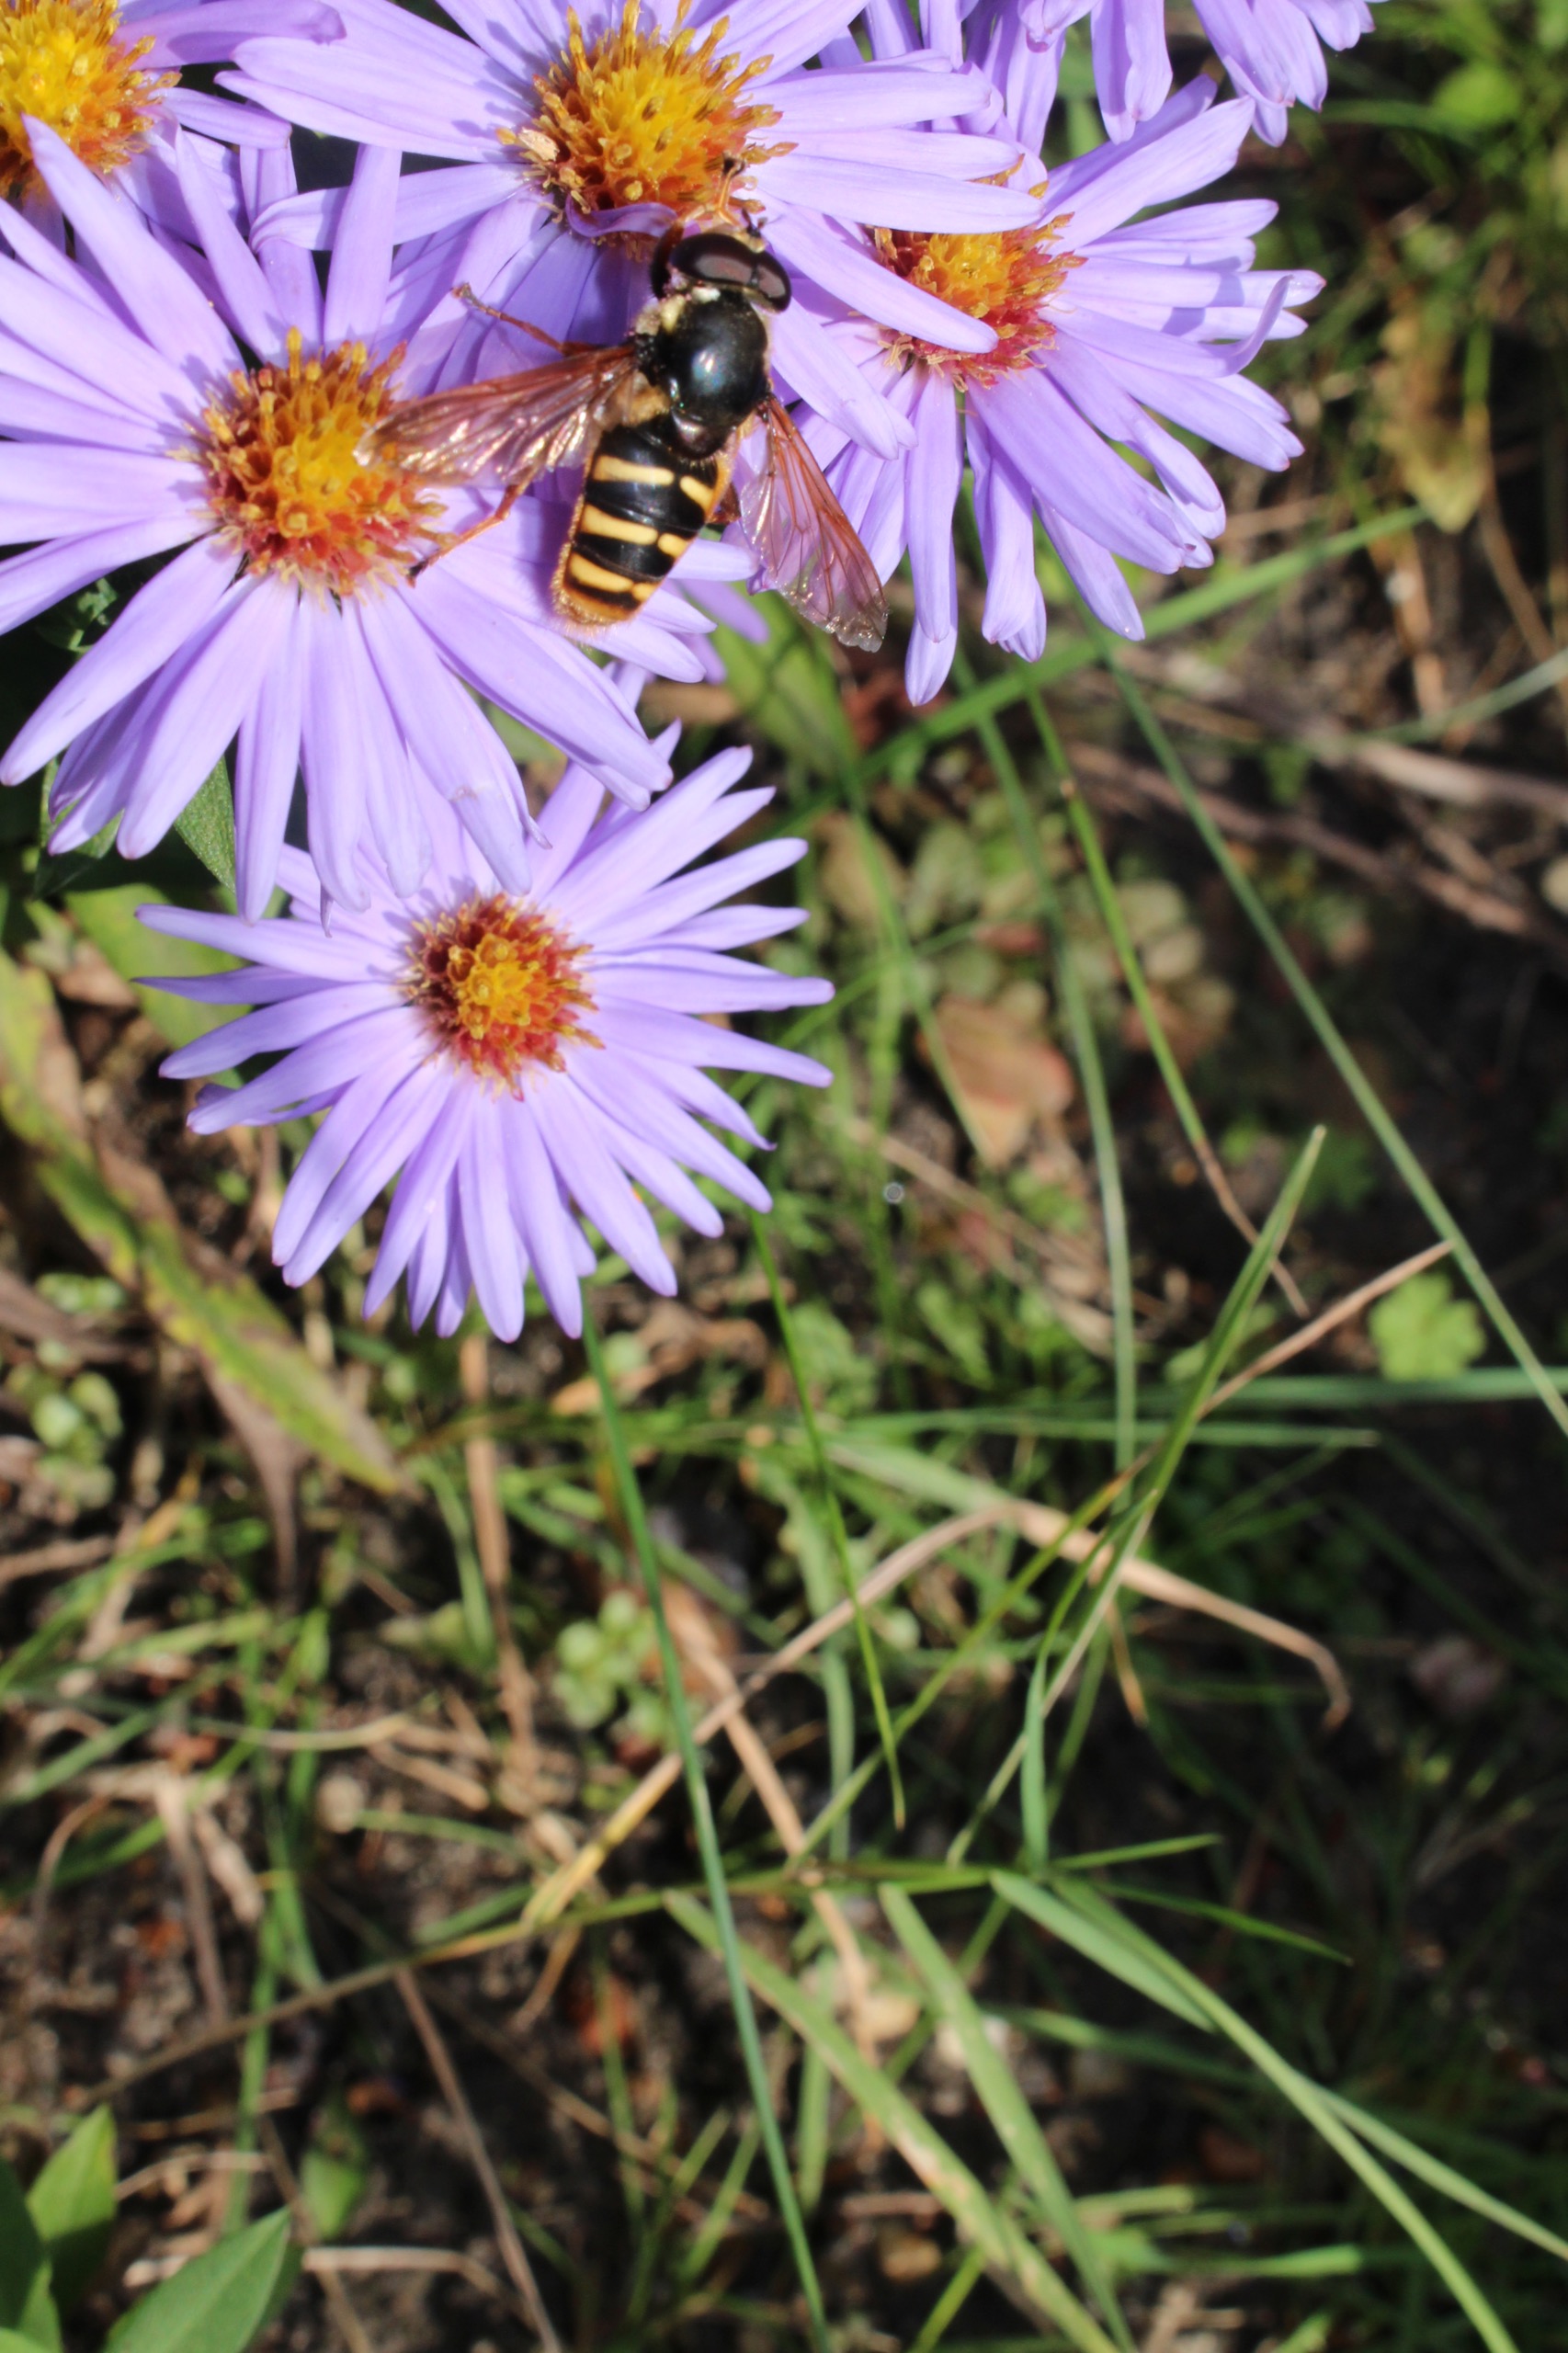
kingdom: Animalia
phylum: Arthropoda
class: Insecta
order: Diptera
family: Syrphidae
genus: Sericomyia
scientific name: Sericomyia silentis
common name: Tørve-silkesvirreflue
